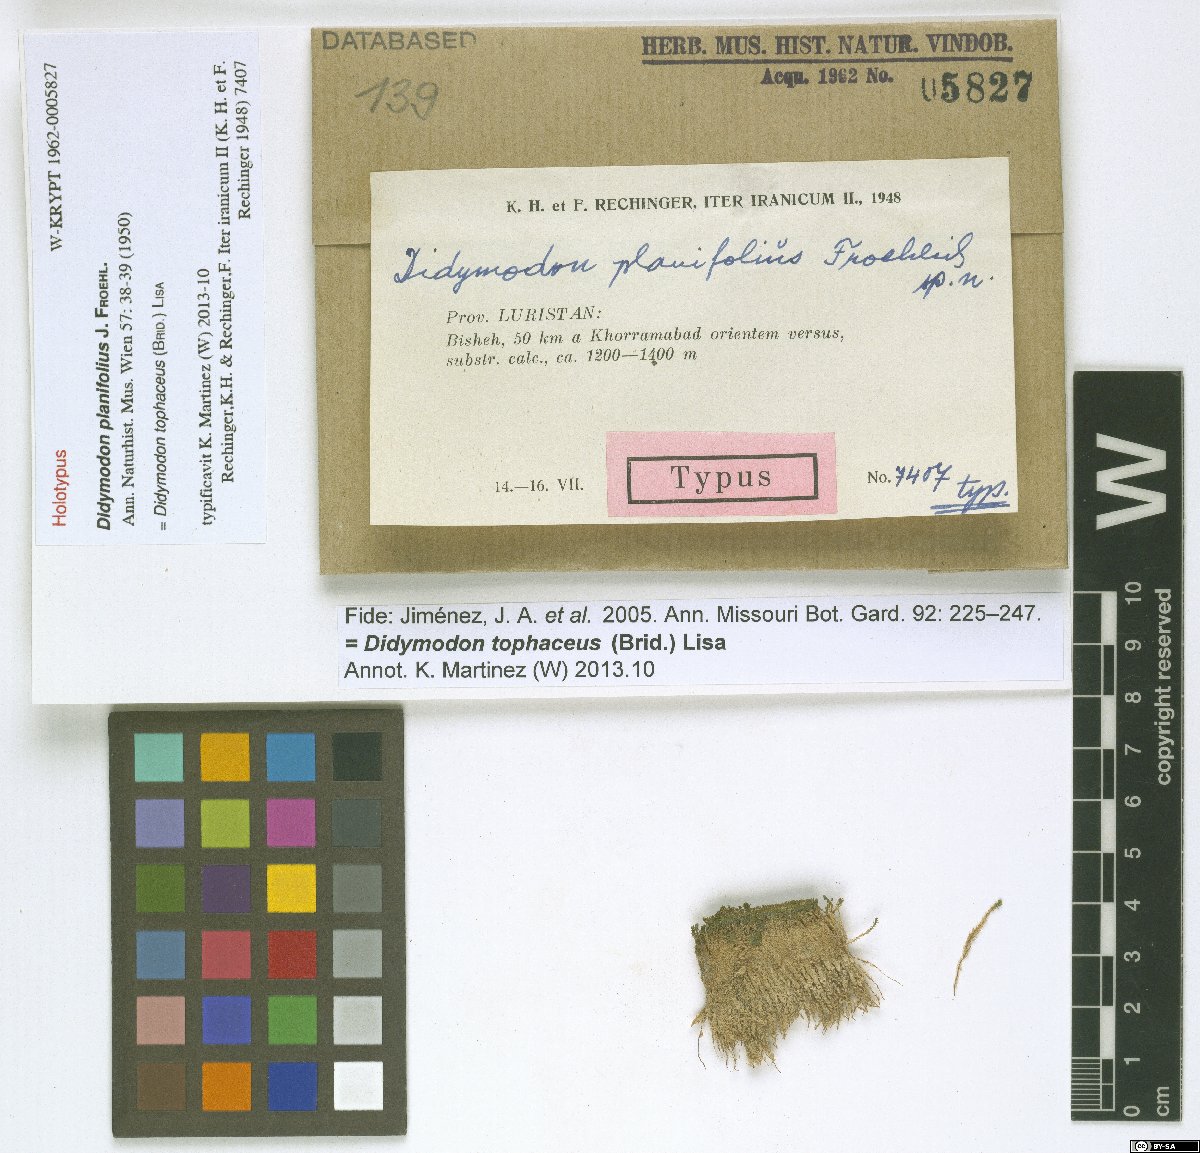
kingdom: Plantae
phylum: Bryophyta
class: Bryopsida
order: Pottiales
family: Pottiaceae
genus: Geheebia
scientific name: Geheebia tophacea
